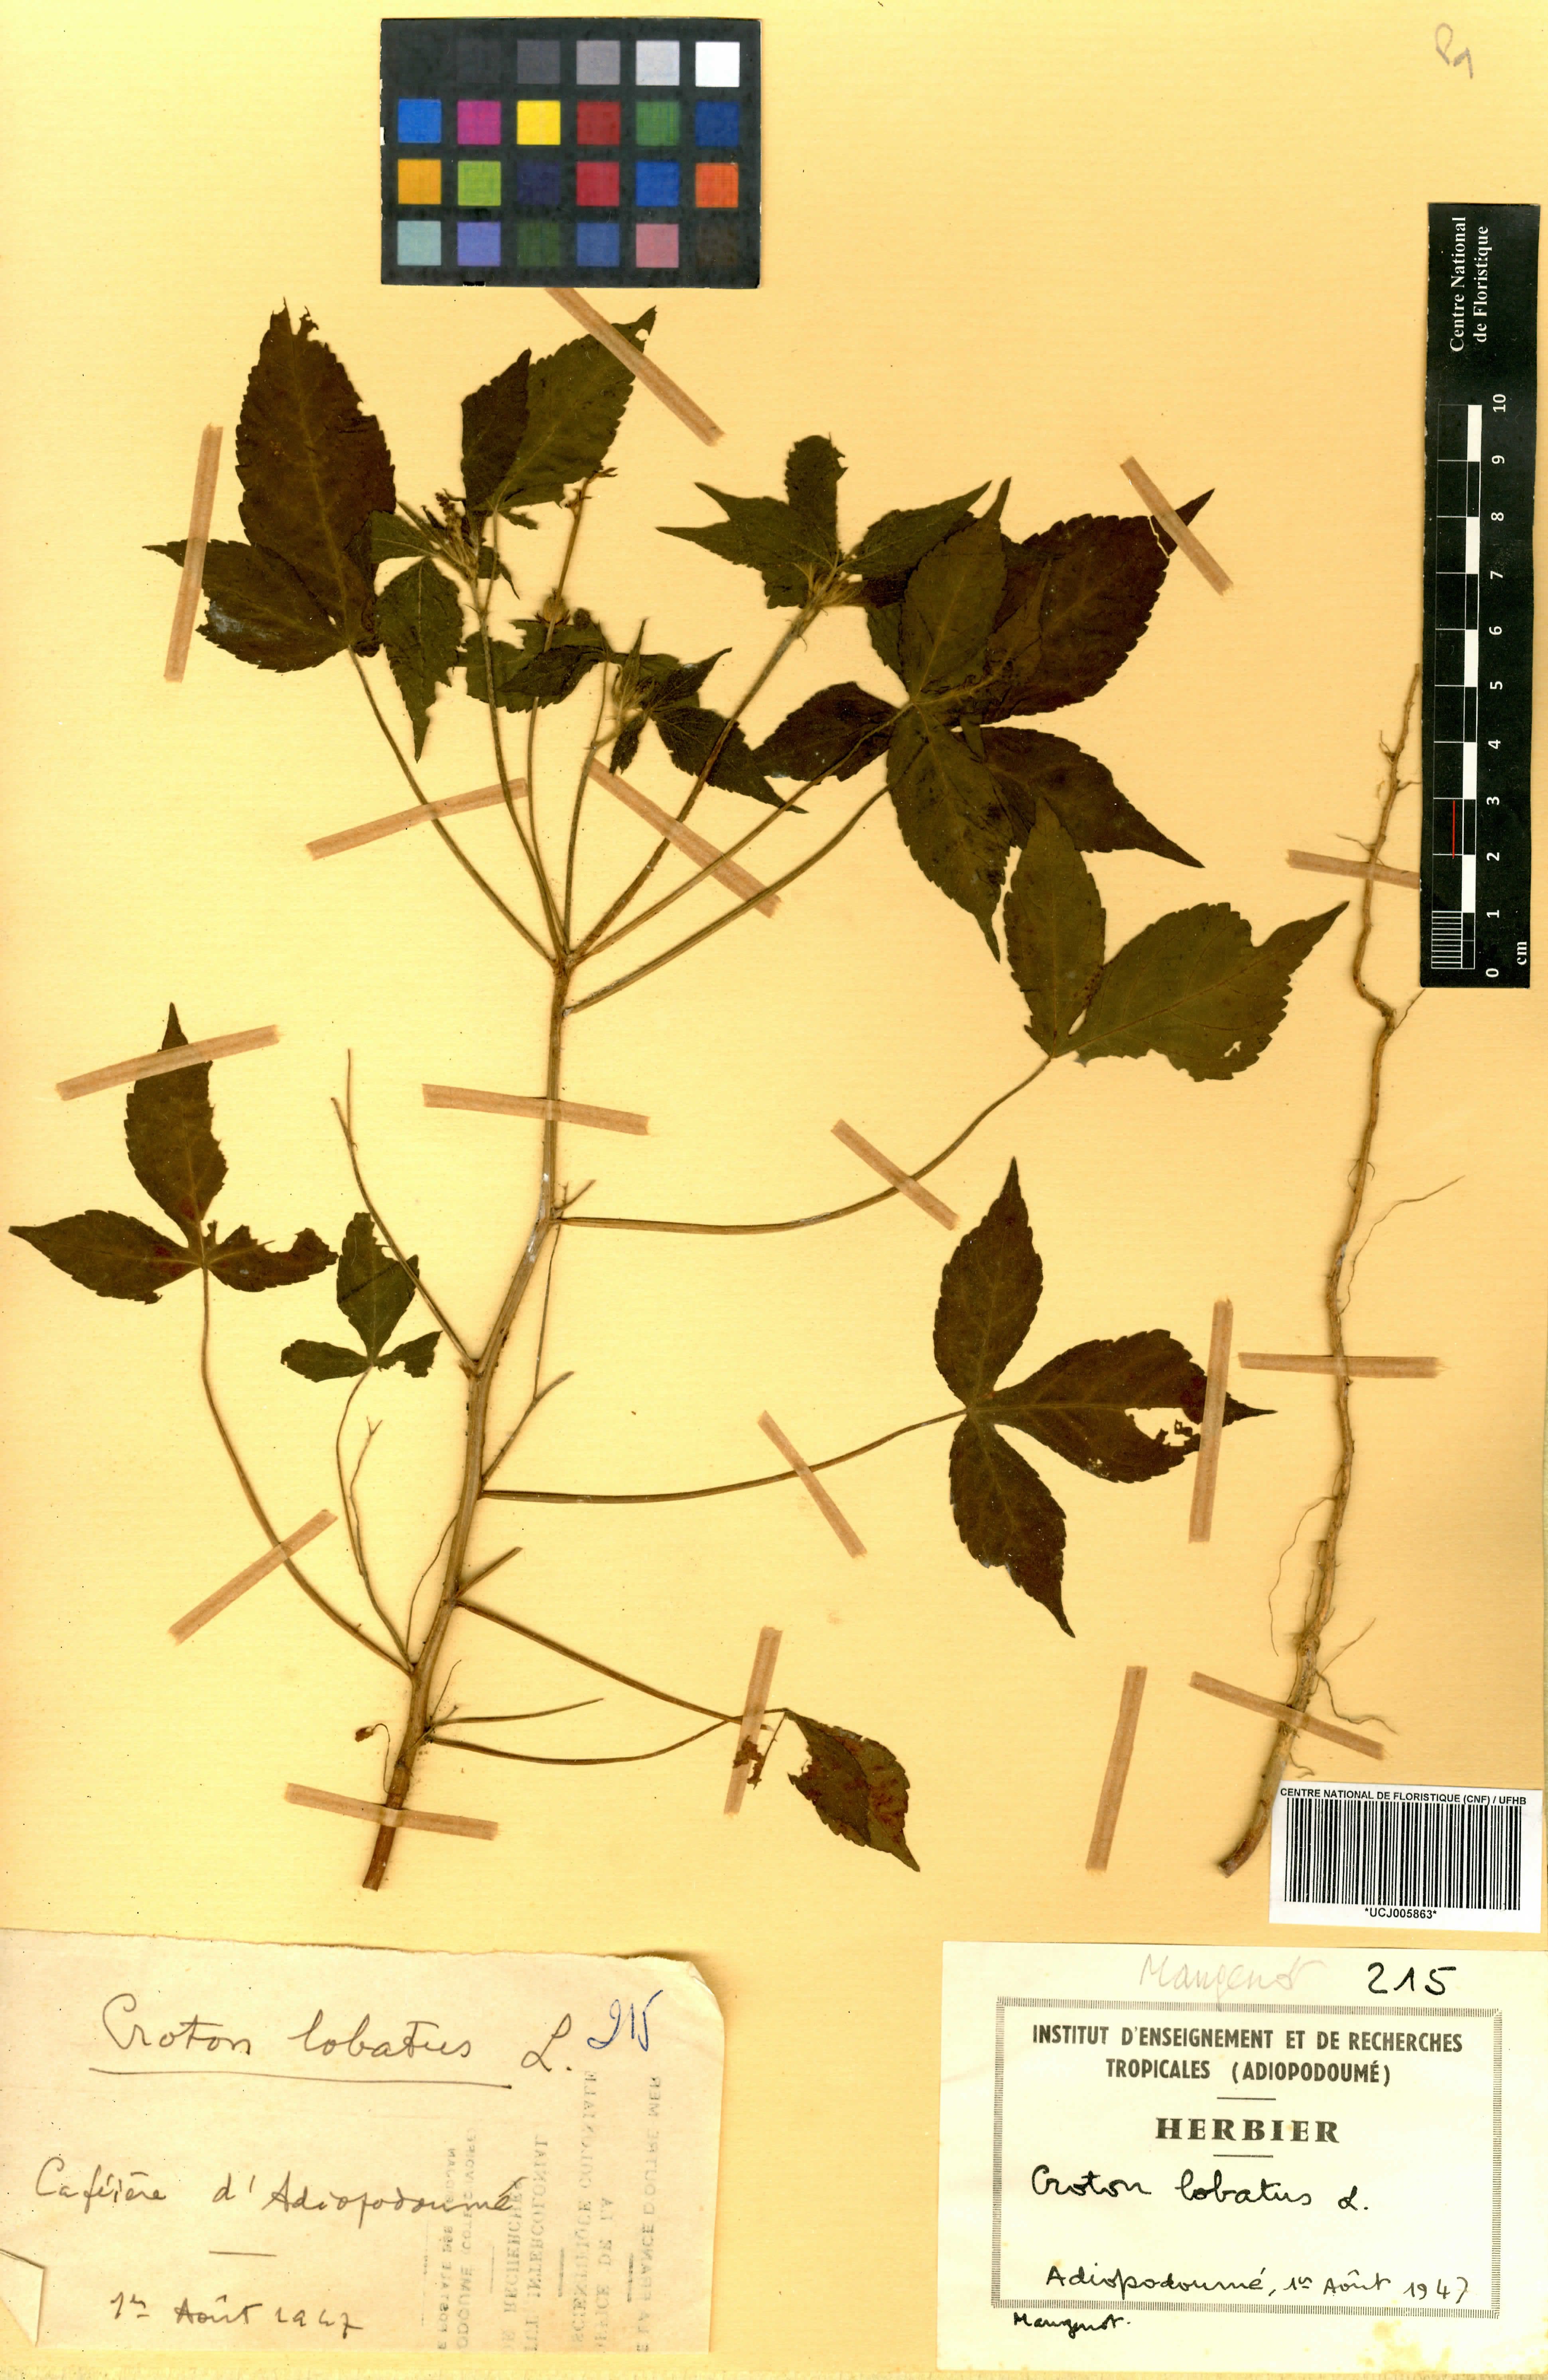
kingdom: Plantae
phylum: Tracheophyta
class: Magnoliopsida
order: Malpighiales
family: Euphorbiaceae
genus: Astraea
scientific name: Astraea lobata
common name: Lobed croton
